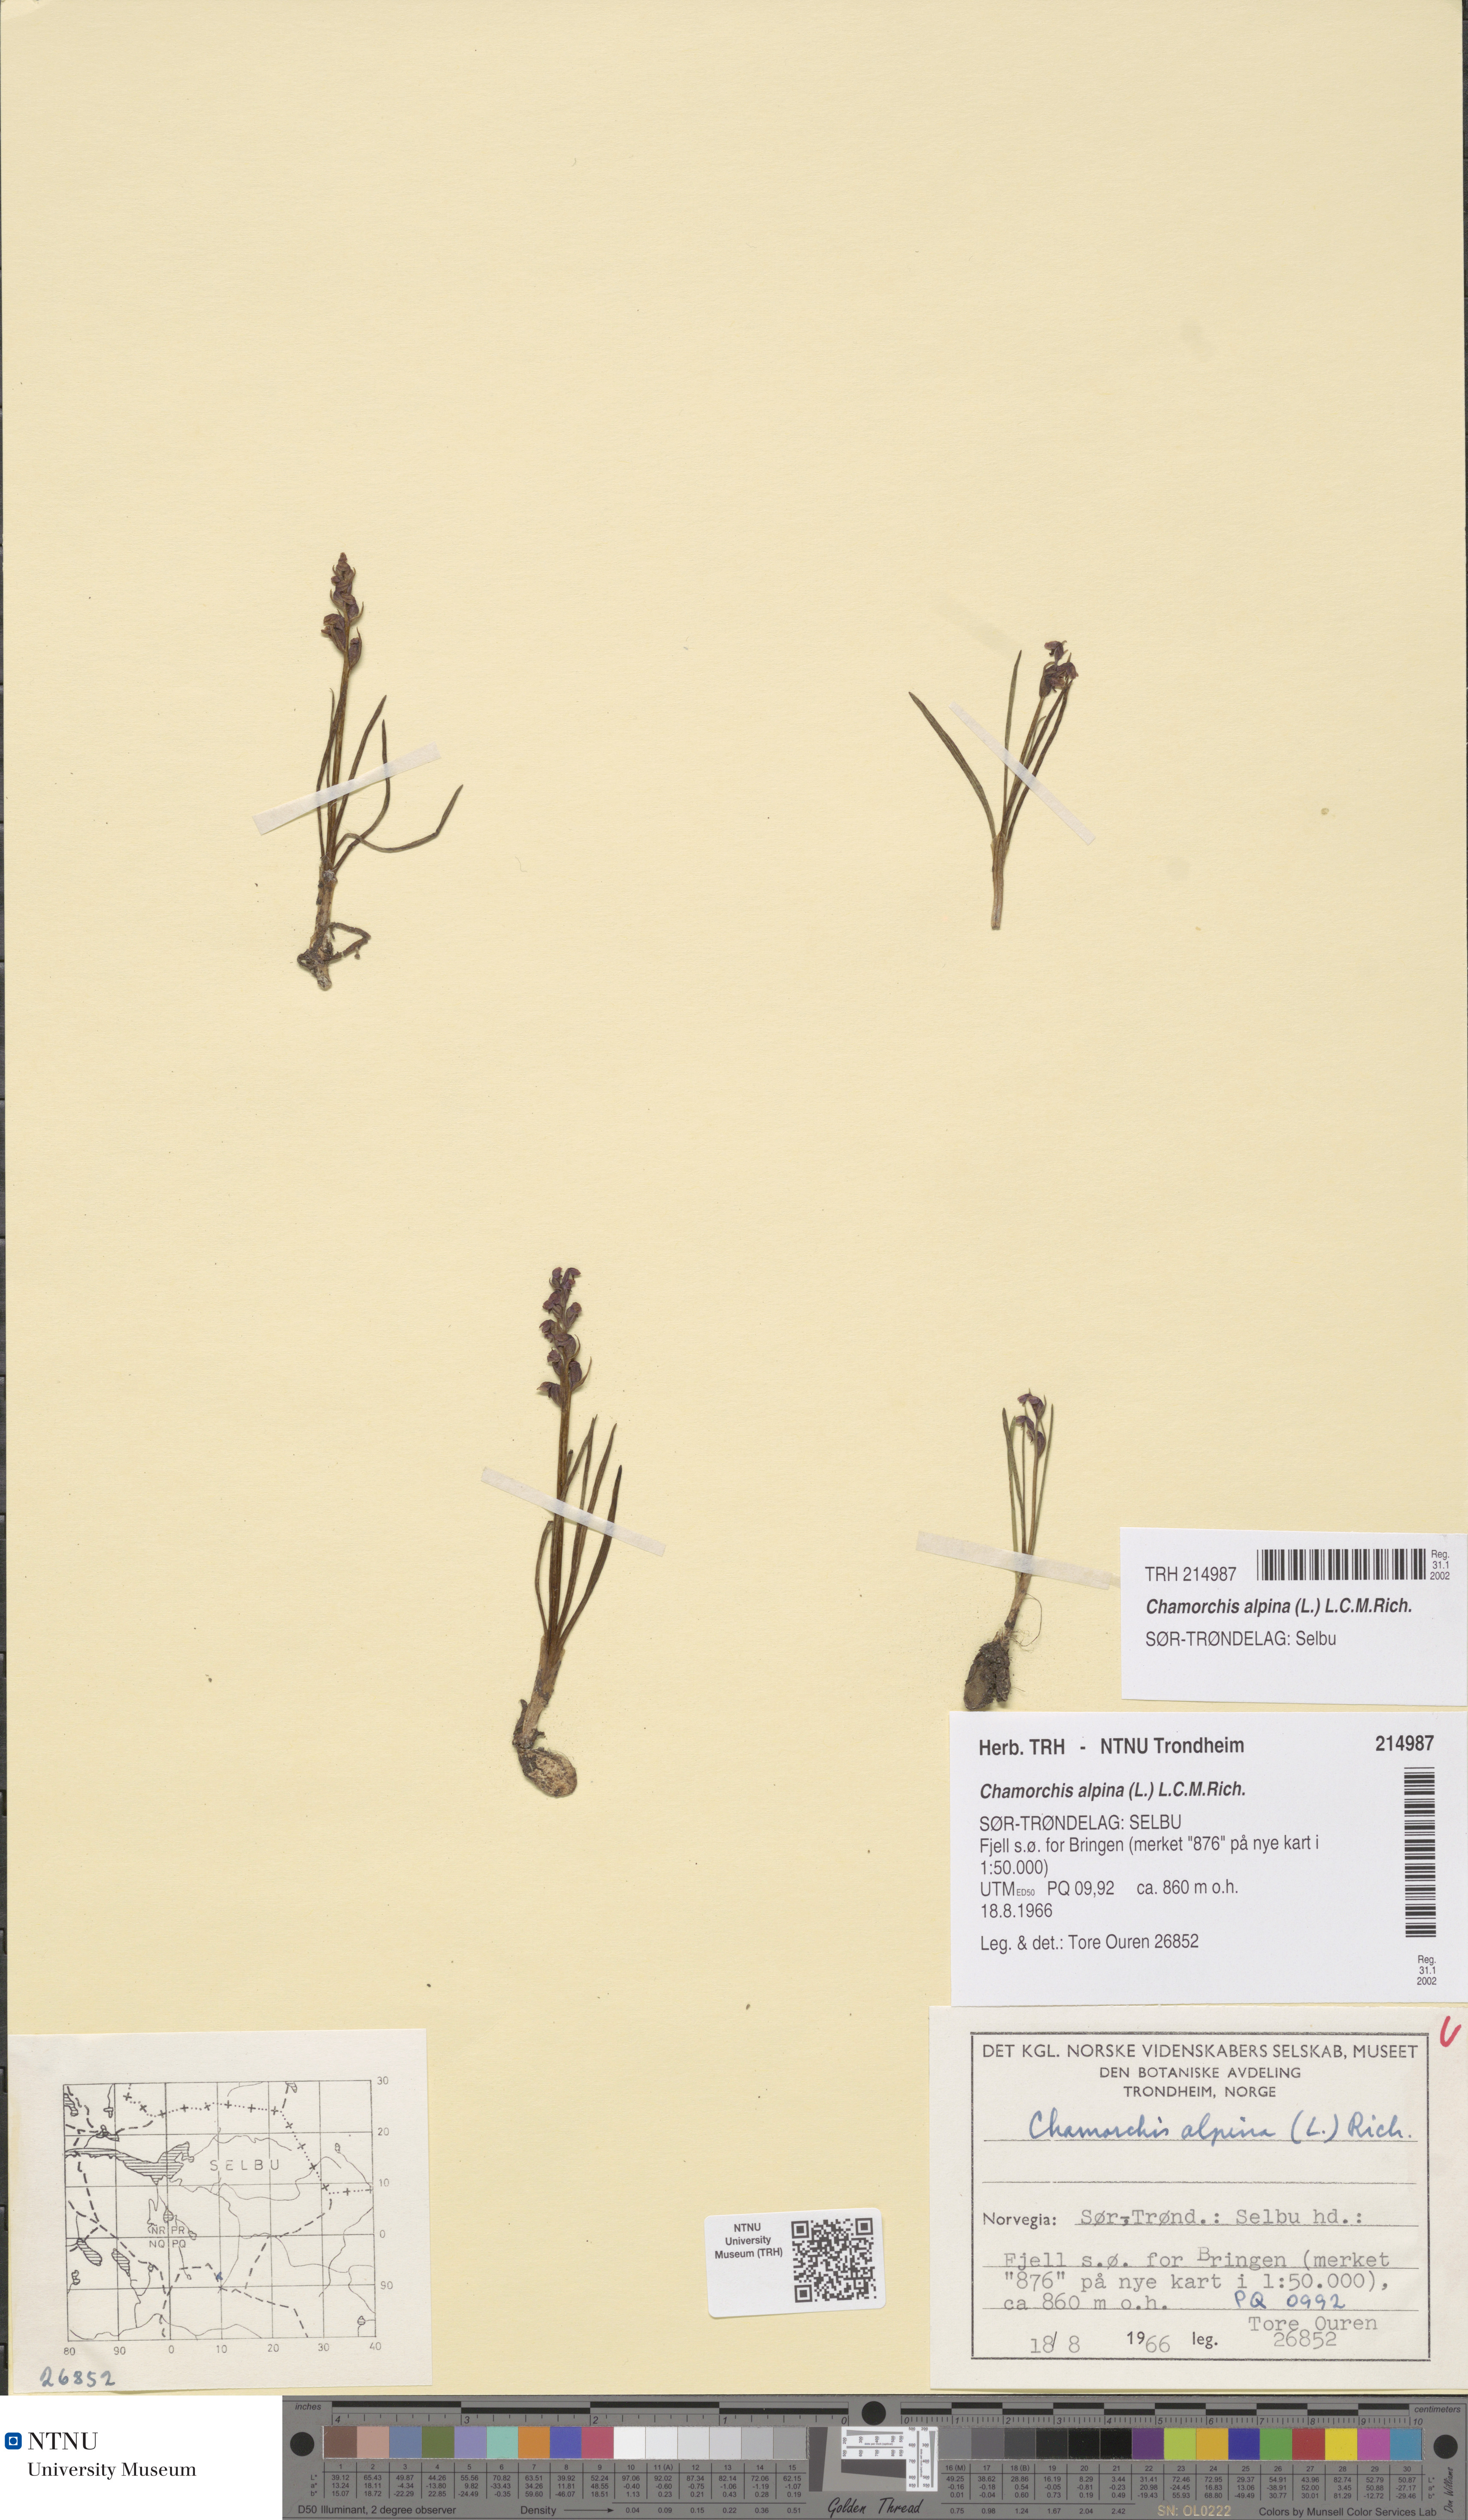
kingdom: Plantae
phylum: Tracheophyta
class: Liliopsida
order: Asparagales
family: Orchidaceae
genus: Chamorchis
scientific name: Chamorchis alpina
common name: Alpine chamorchis
